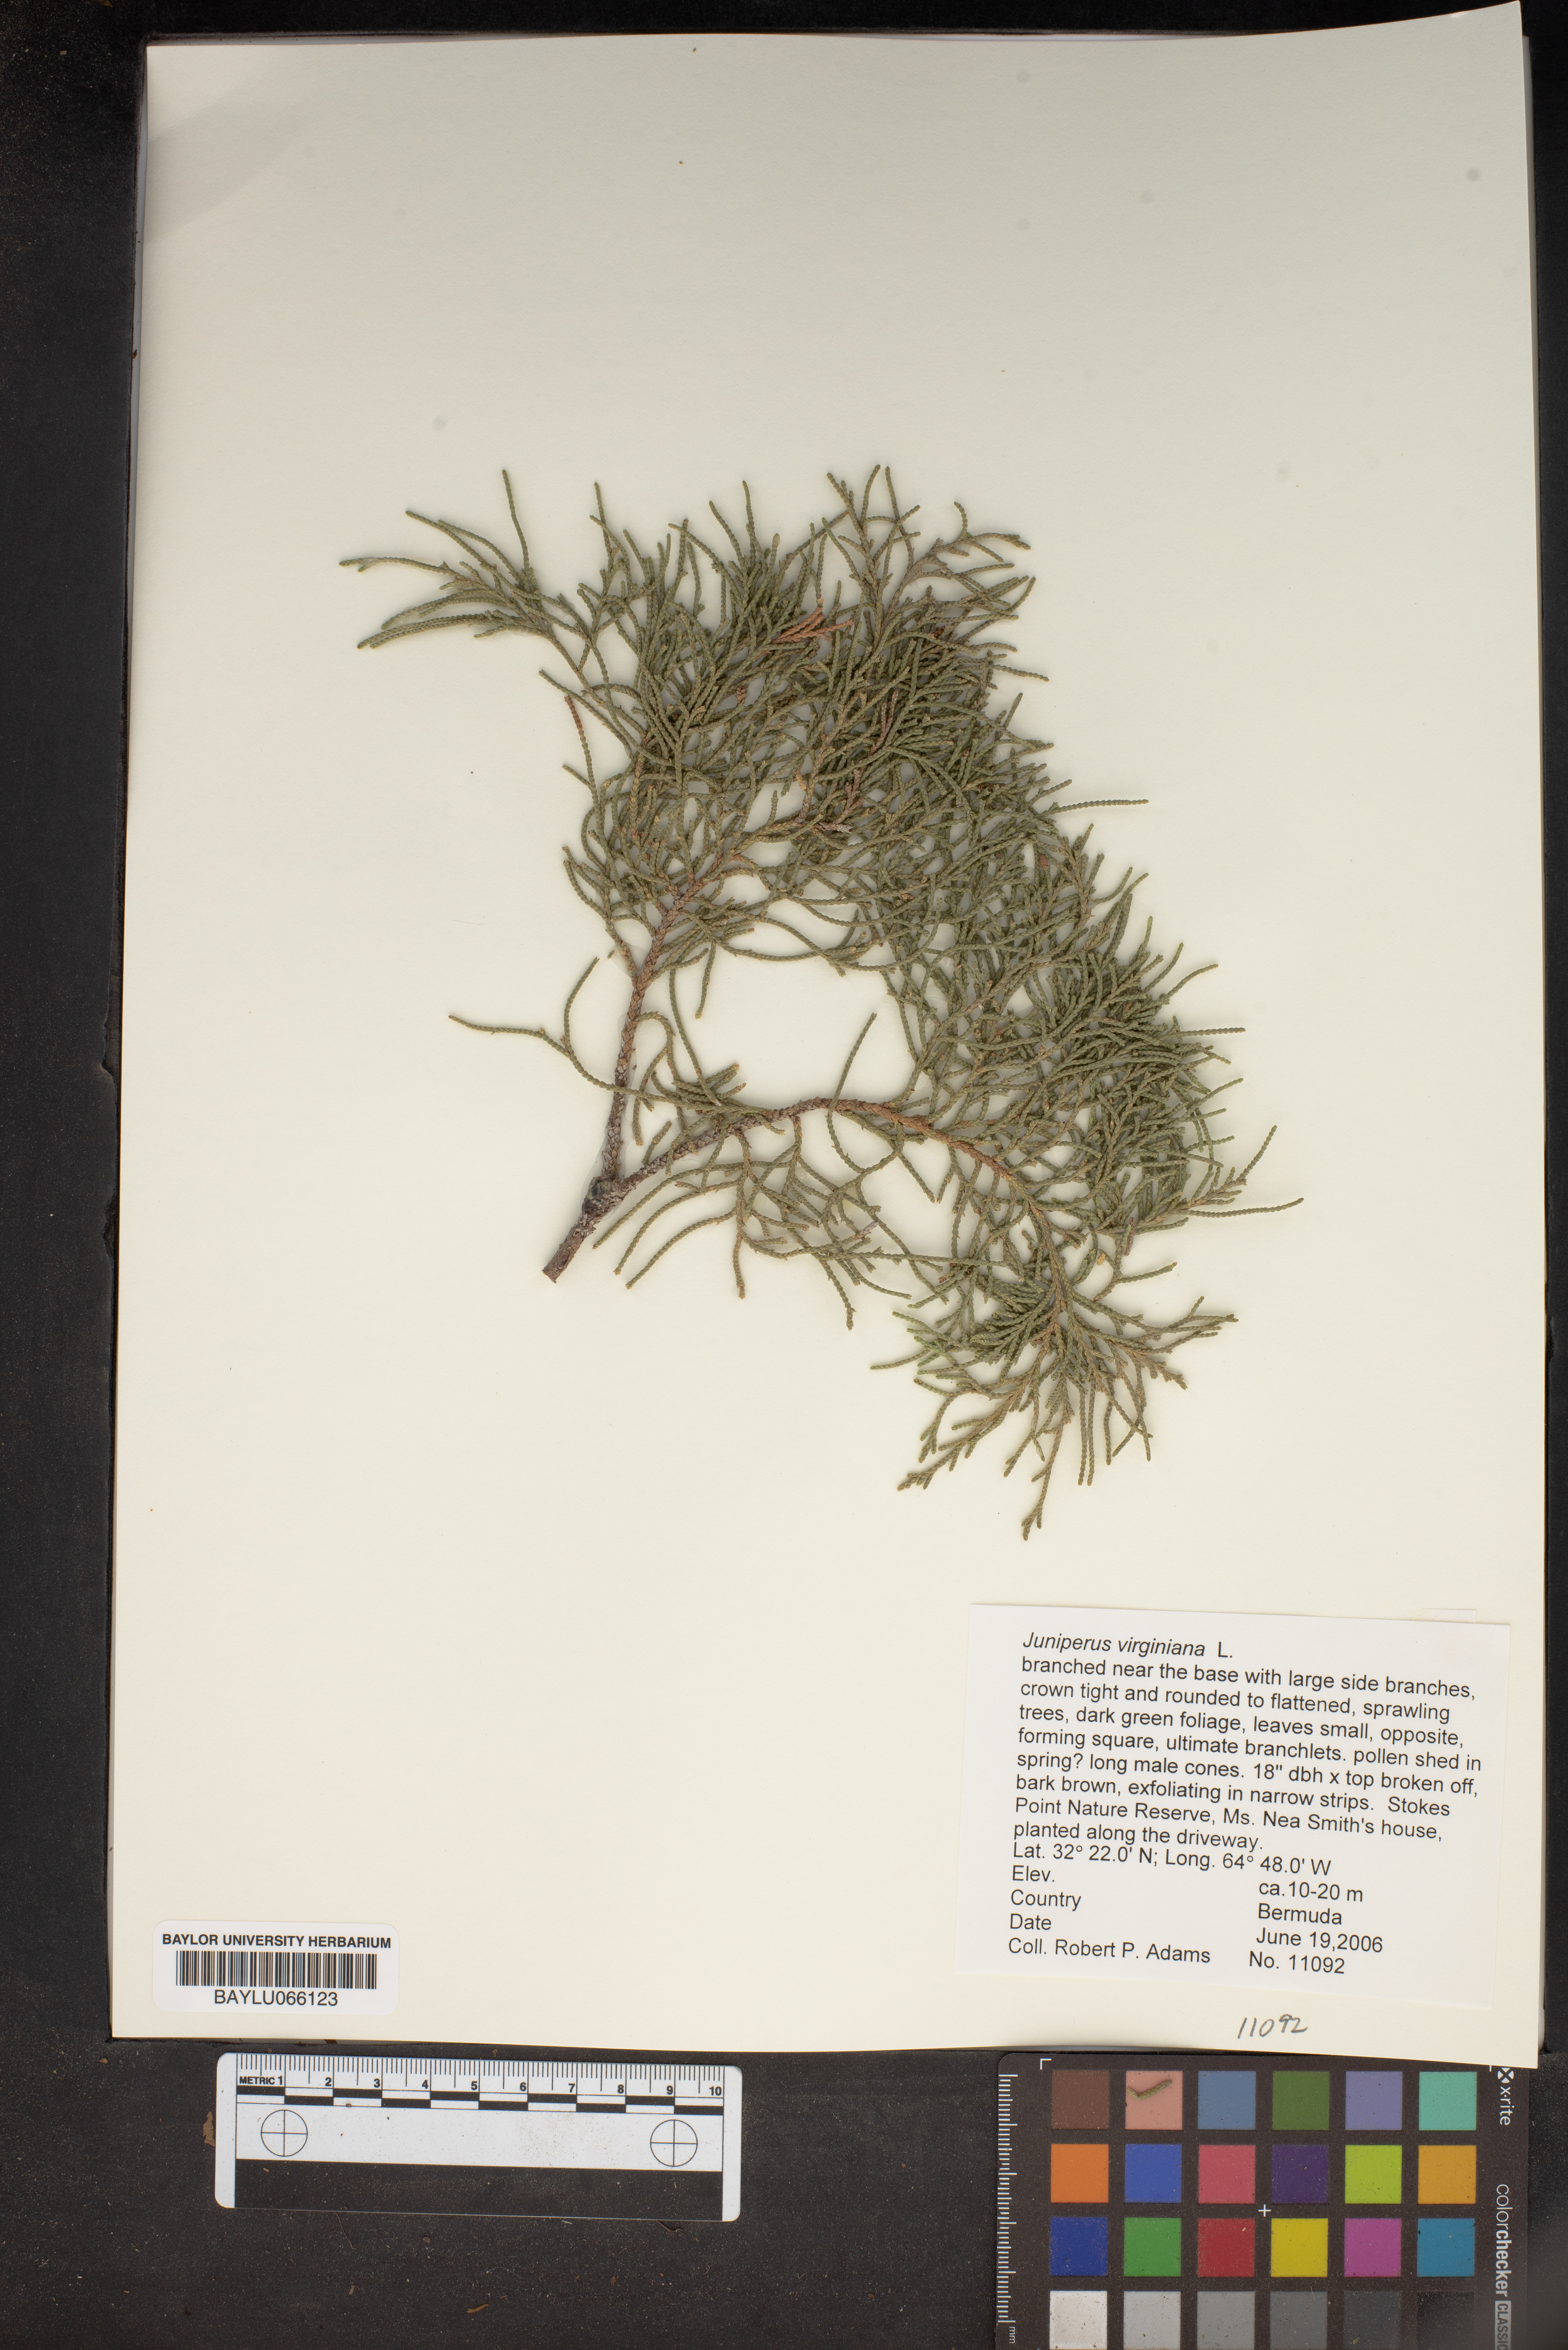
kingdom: Plantae
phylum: Tracheophyta
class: Pinopsida
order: Pinales
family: Cupressaceae
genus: Juniperus
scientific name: Juniperus virginiana
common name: Red juniper
